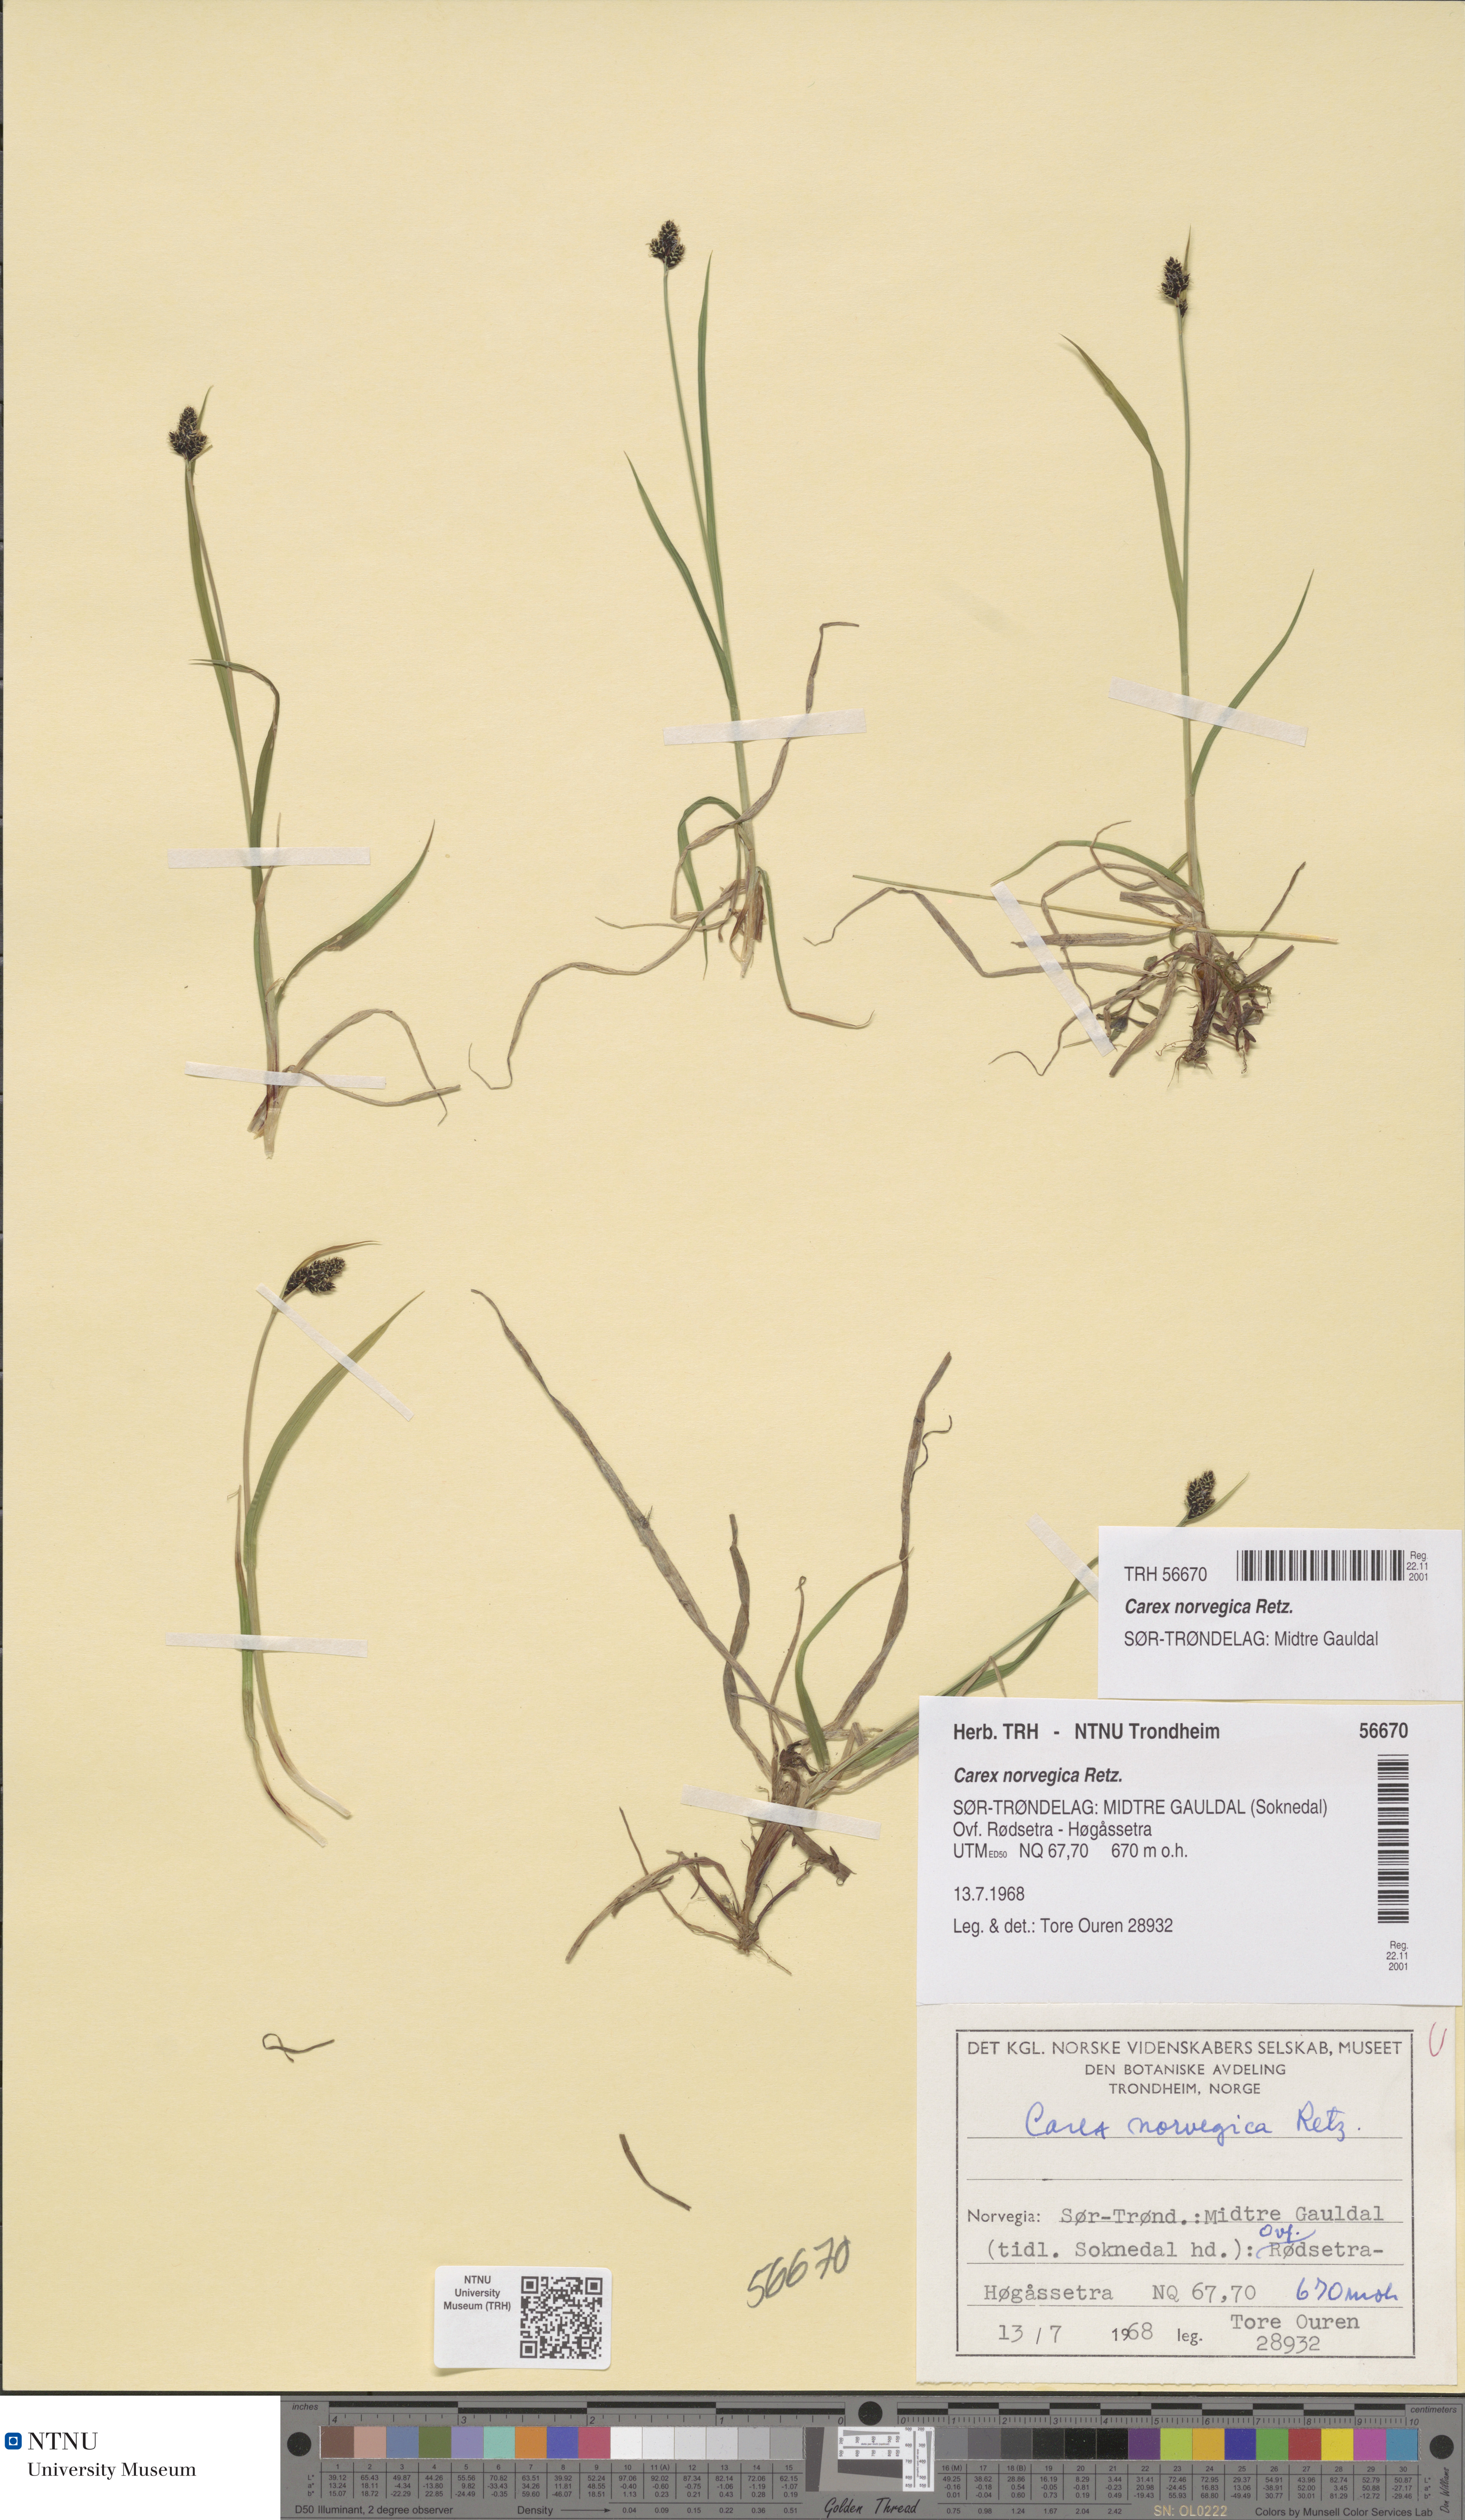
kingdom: Plantae
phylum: Tracheophyta
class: Liliopsida
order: Poales
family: Cyperaceae
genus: Carex
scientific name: Carex norvegica
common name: Close-headed alpine-sedge
